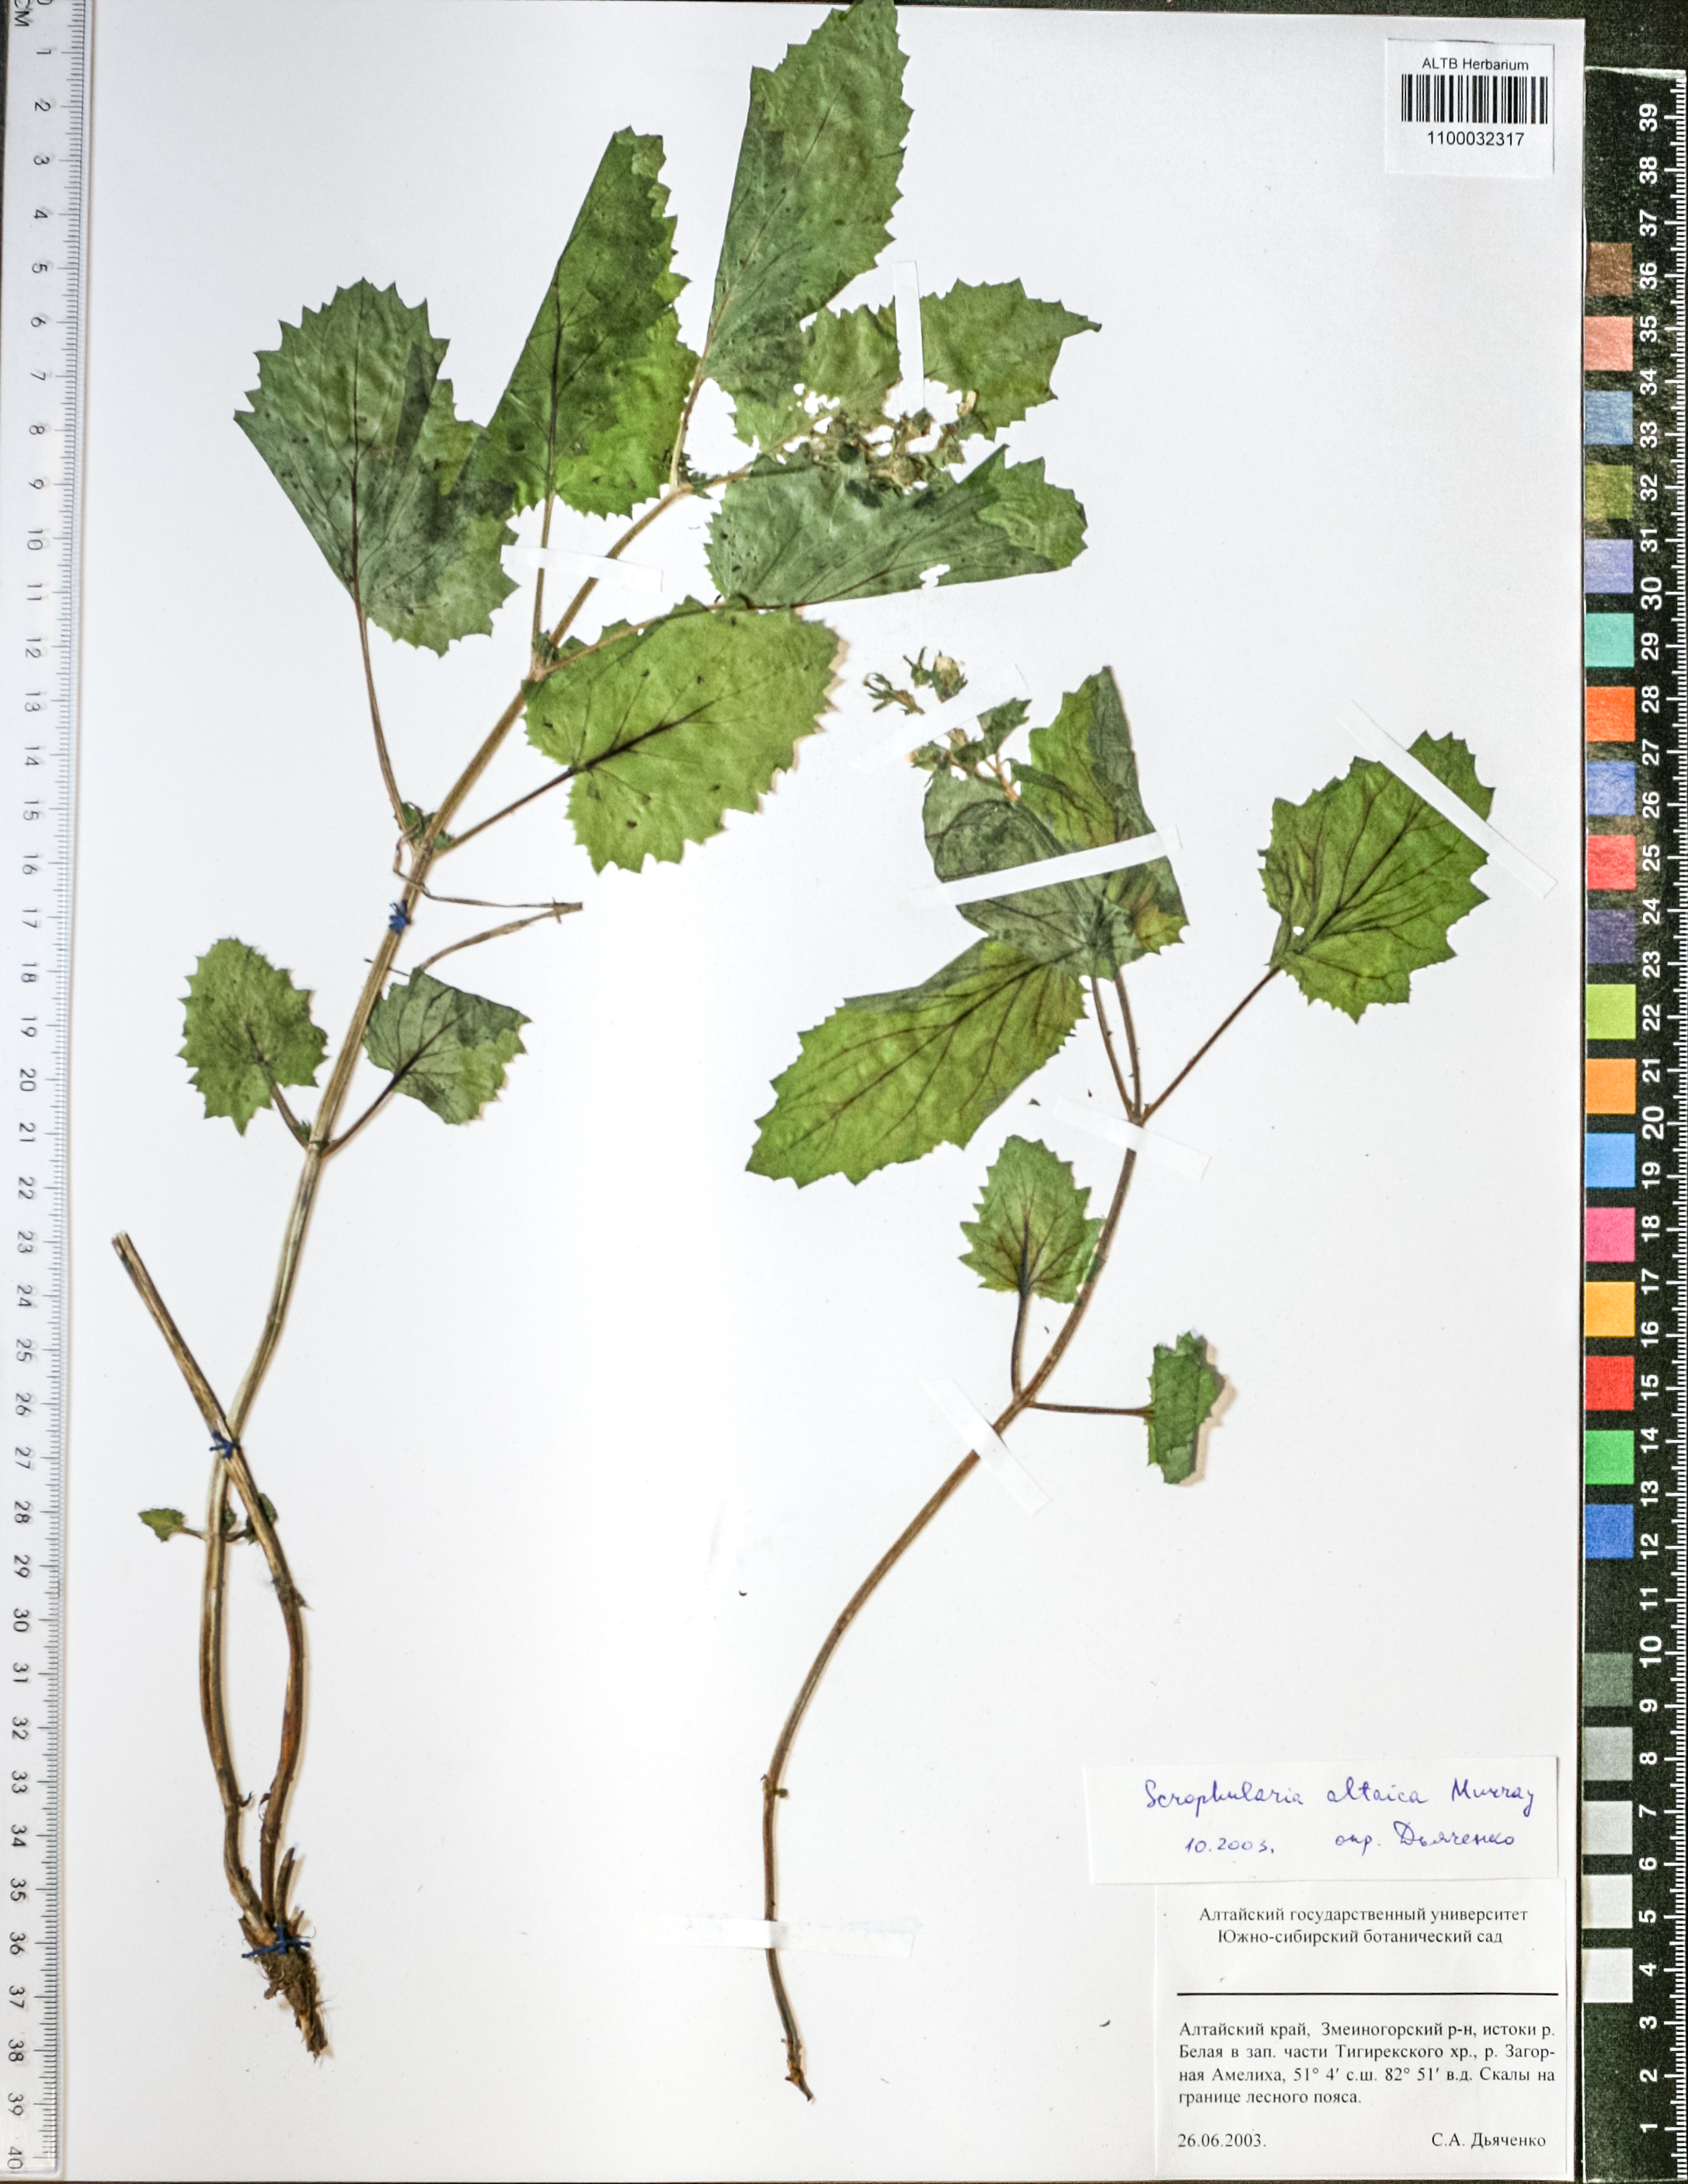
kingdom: Plantae
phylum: Tracheophyta
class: Magnoliopsida
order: Lamiales
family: Scrophulariaceae
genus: Scrophularia
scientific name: Scrophularia altaica
